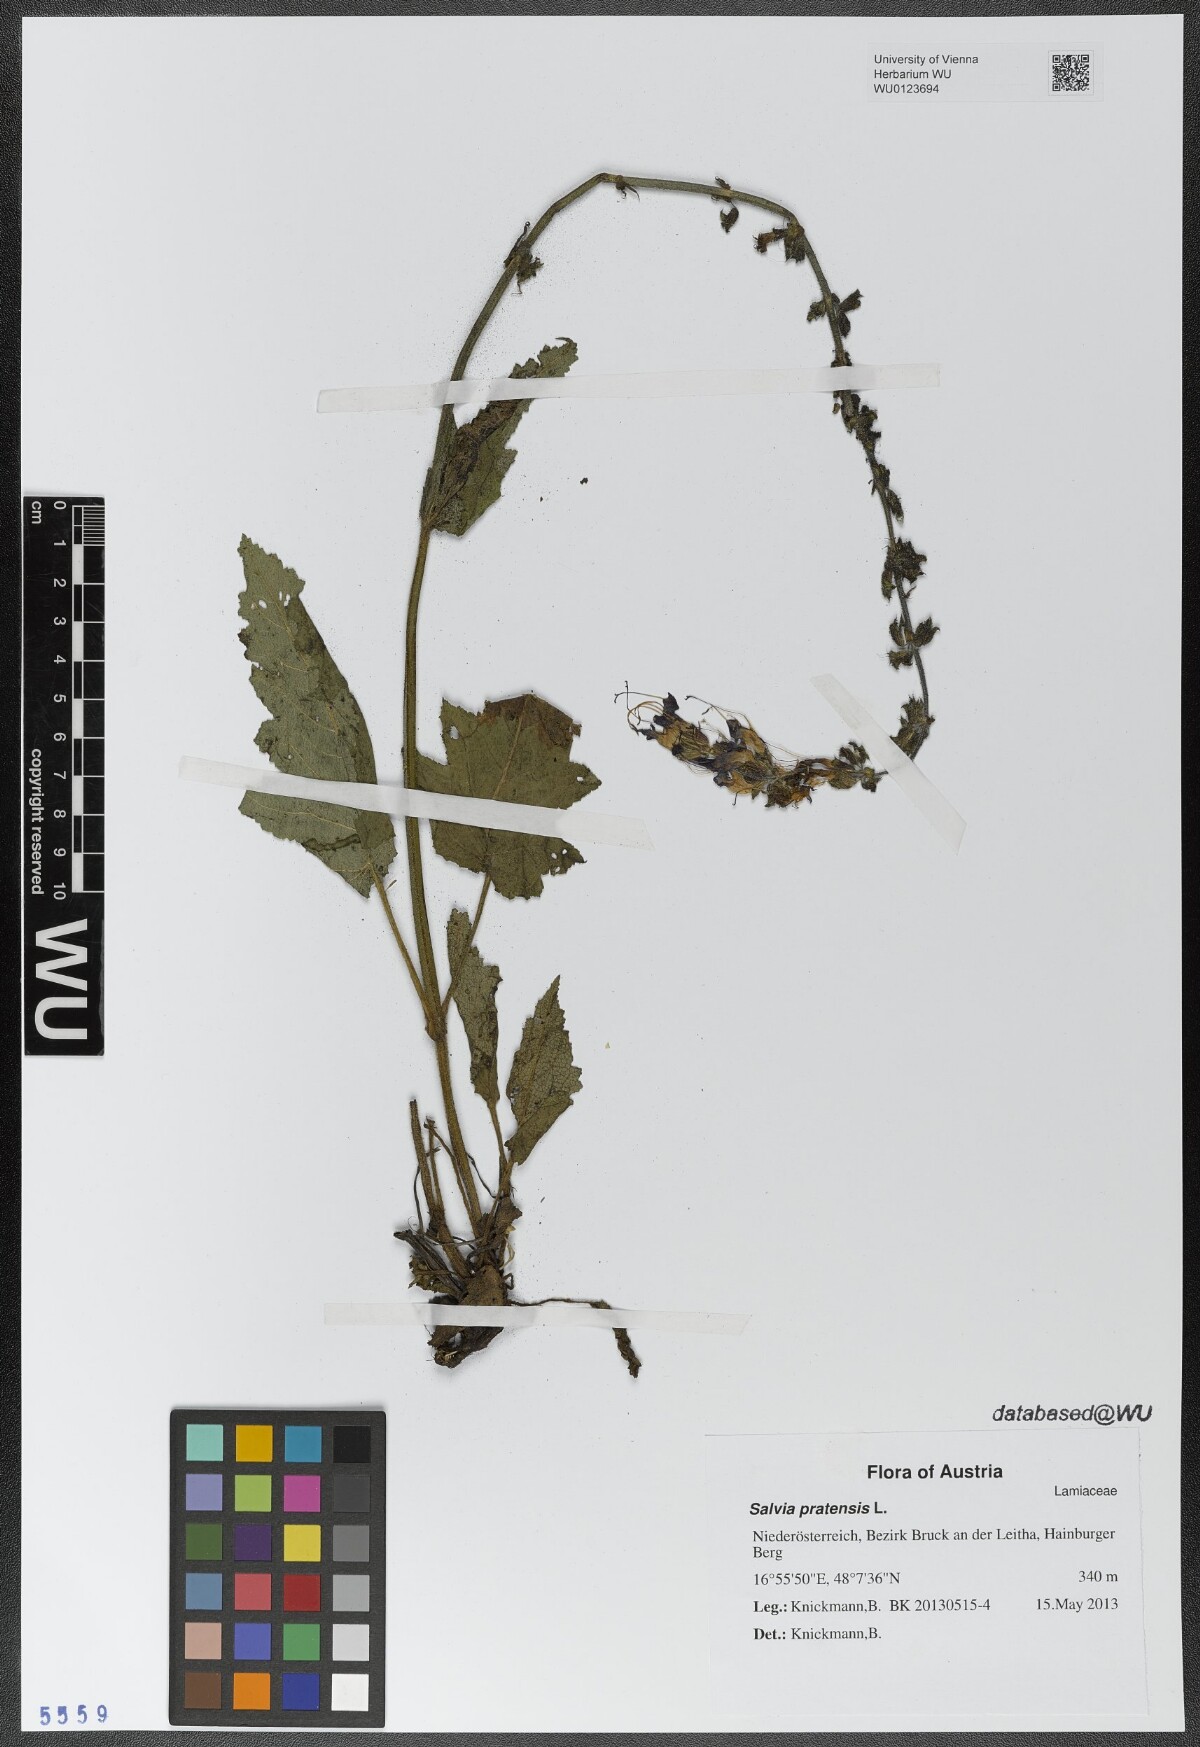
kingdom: Plantae
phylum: Tracheophyta
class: Magnoliopsida
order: Lamiales
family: Lamiaceae
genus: Salvia
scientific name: Salvia pratensis
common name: Meadow sage
